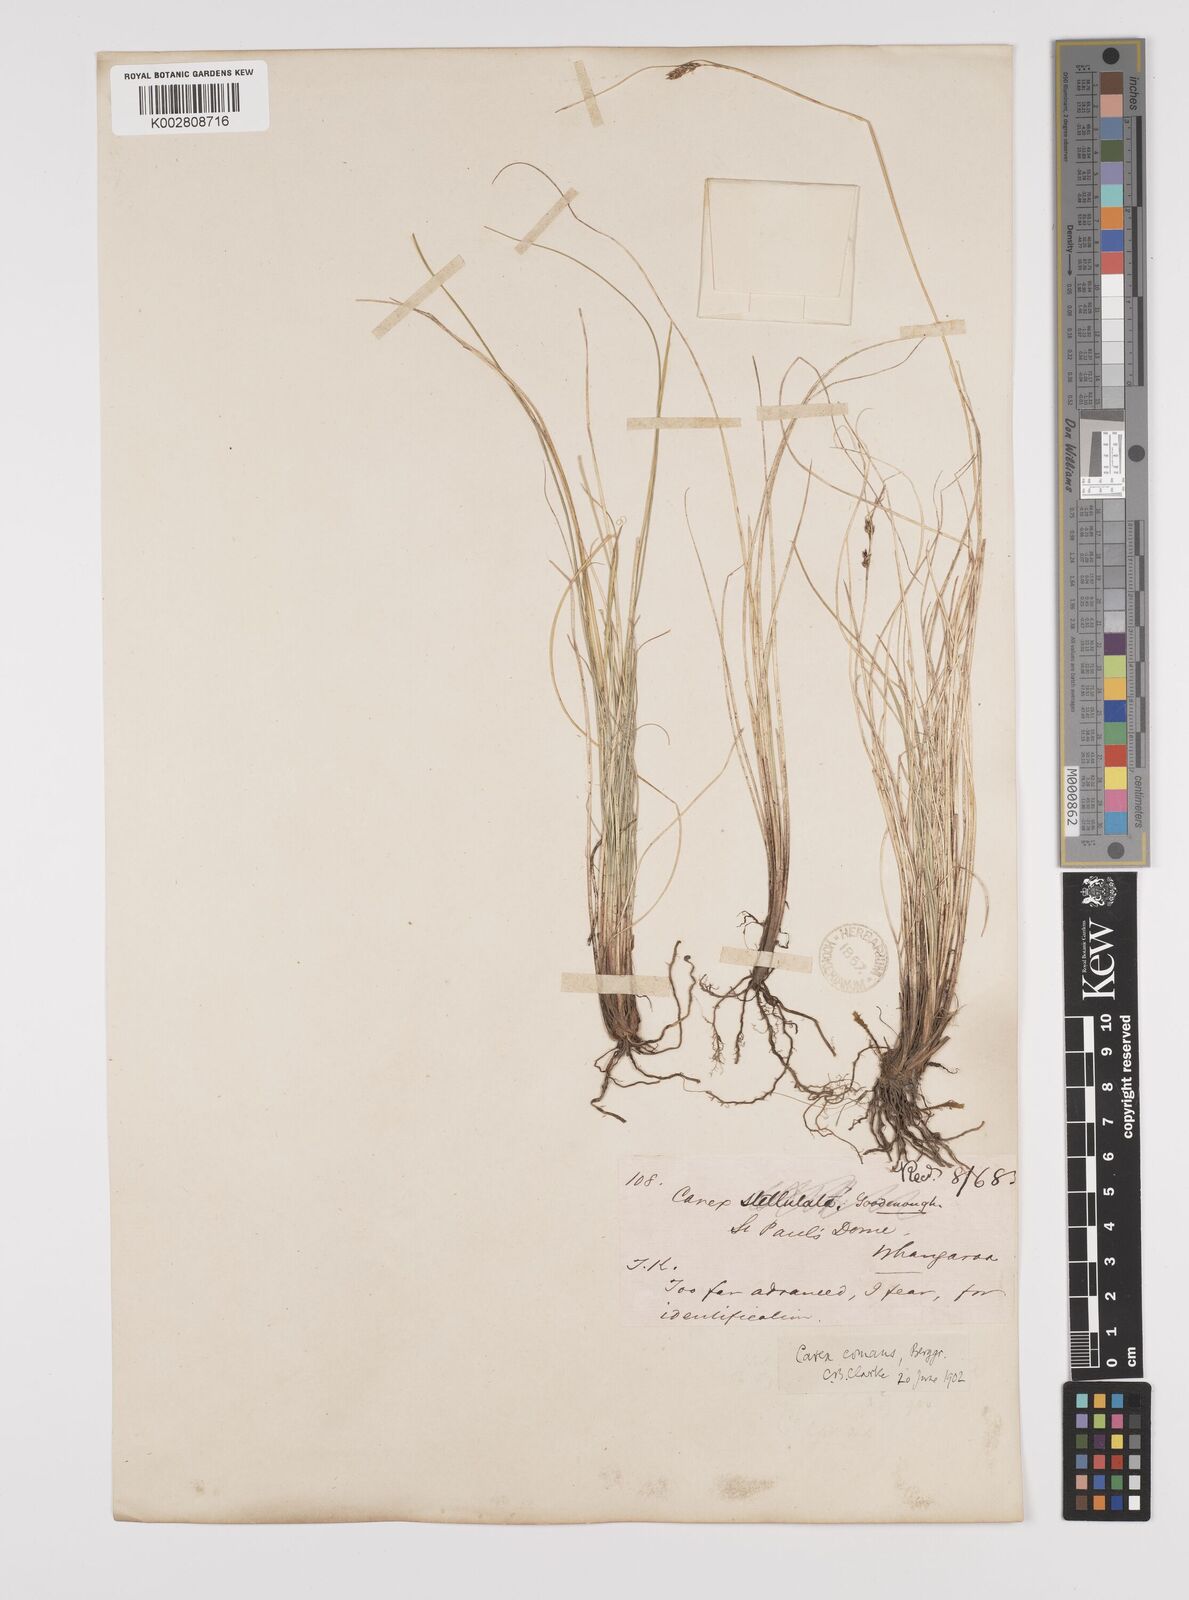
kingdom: Plantae
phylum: Tracheophyta
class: Liliopsida
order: Poales
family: Cyperaceae
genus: Carex
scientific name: Carex comans
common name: Longwood tussock
